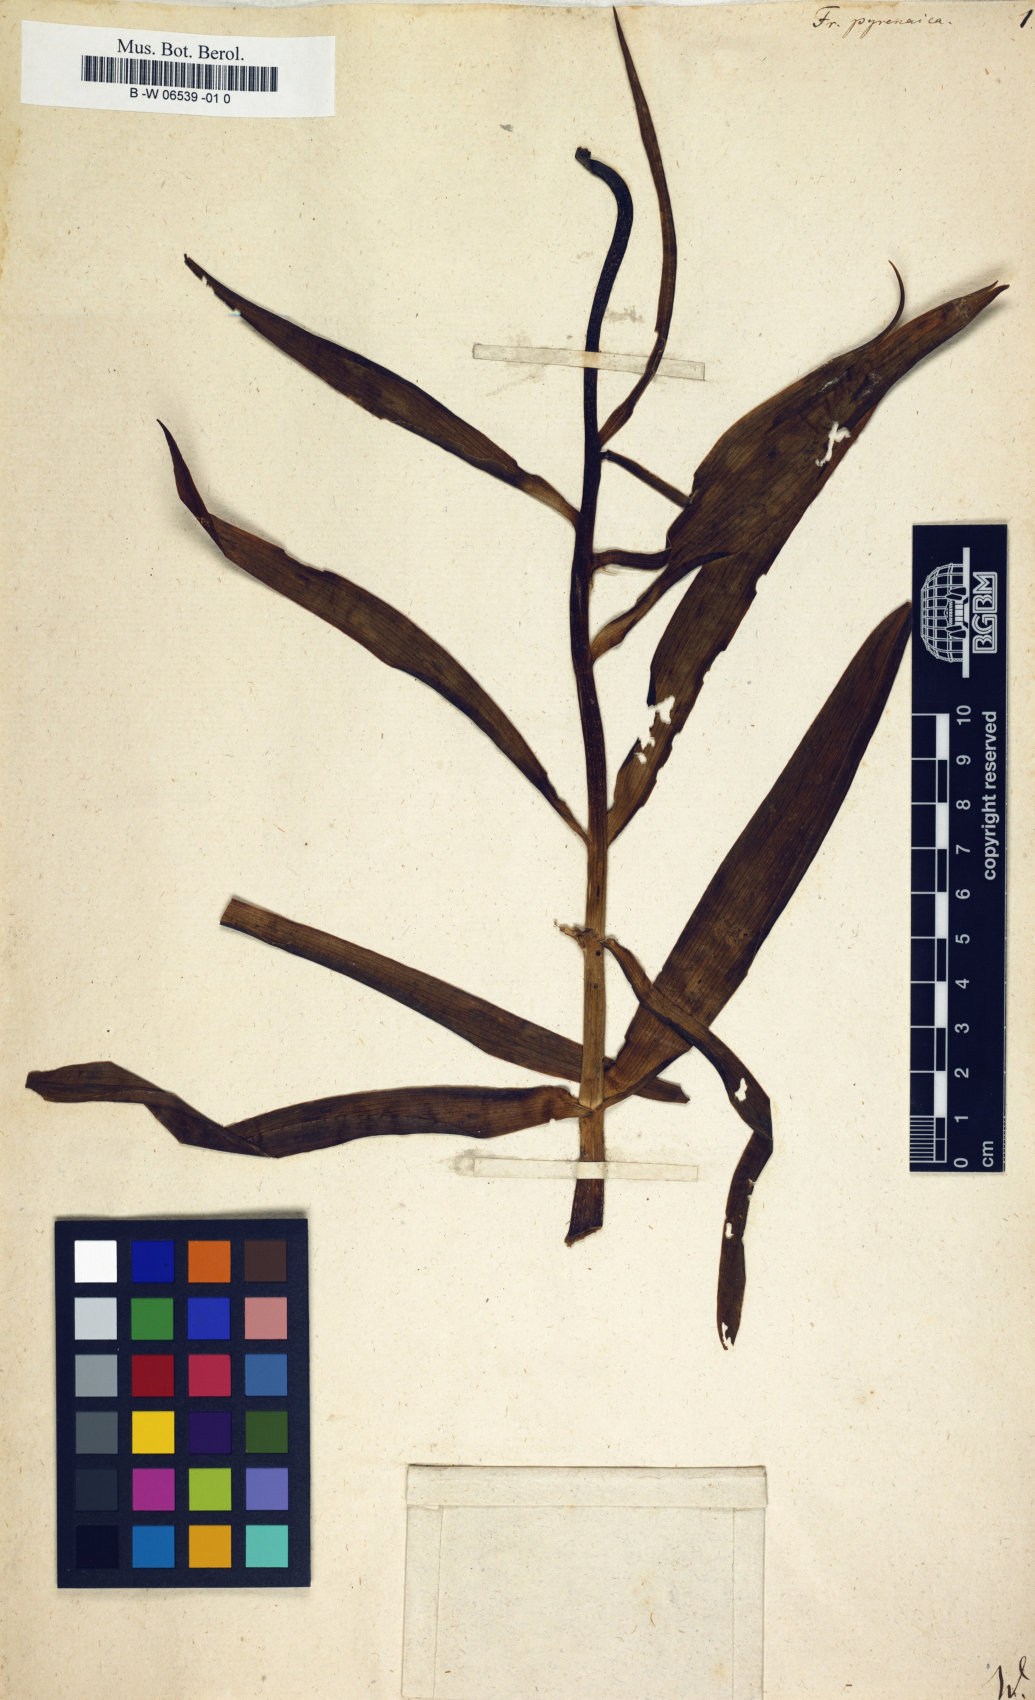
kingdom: Plantae
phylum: Tracheophyta
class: Liliopsida
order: Liliales
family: Liliaceae
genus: Fritillaria
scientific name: Fritillaria pyrenaica
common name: Pyrenean snake's-head
